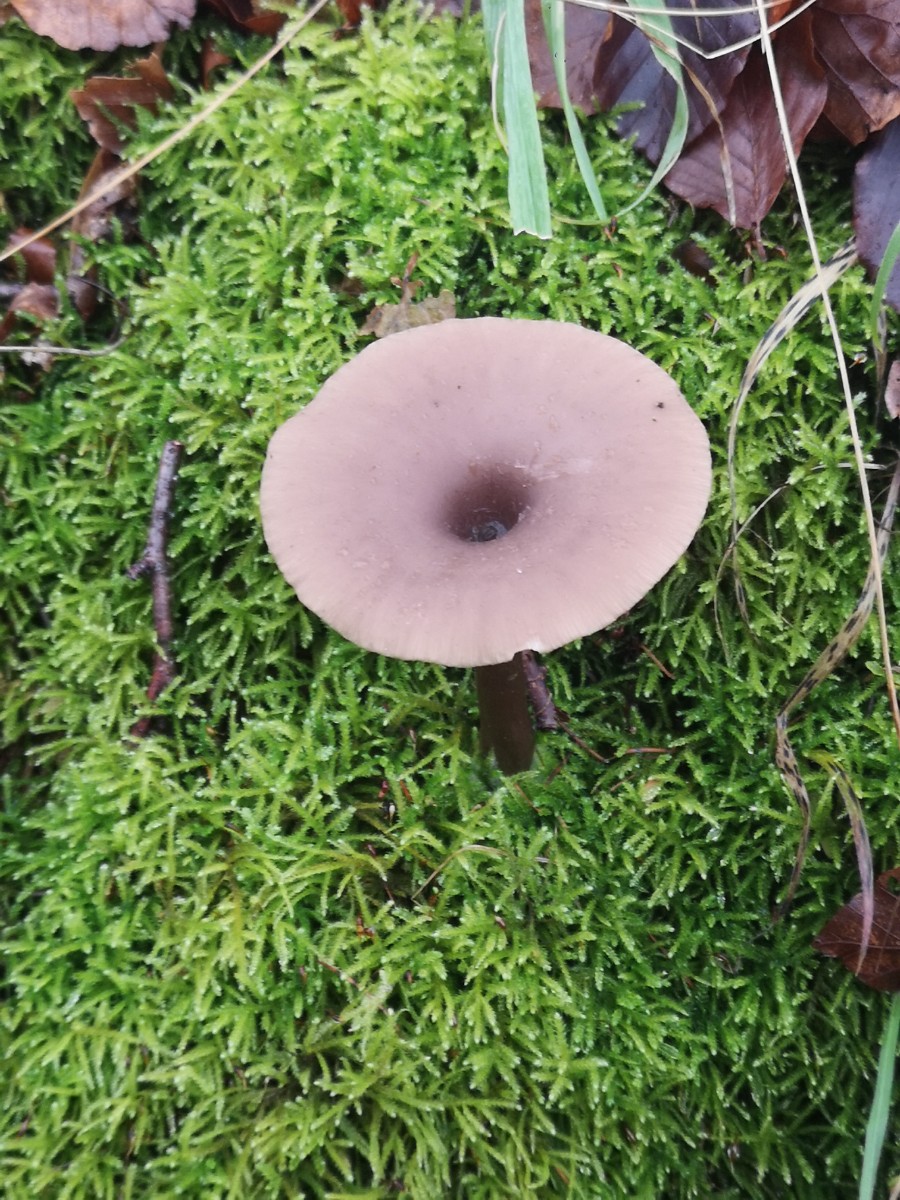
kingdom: Fungi
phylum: Basidiomycota
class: Agaricomycetes
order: Agaricales
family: Pseudoclitocybaceae
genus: Pseudoclitocybe
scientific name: Pseudoclitocybe cyathiformis
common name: almindelig bægertragthat
